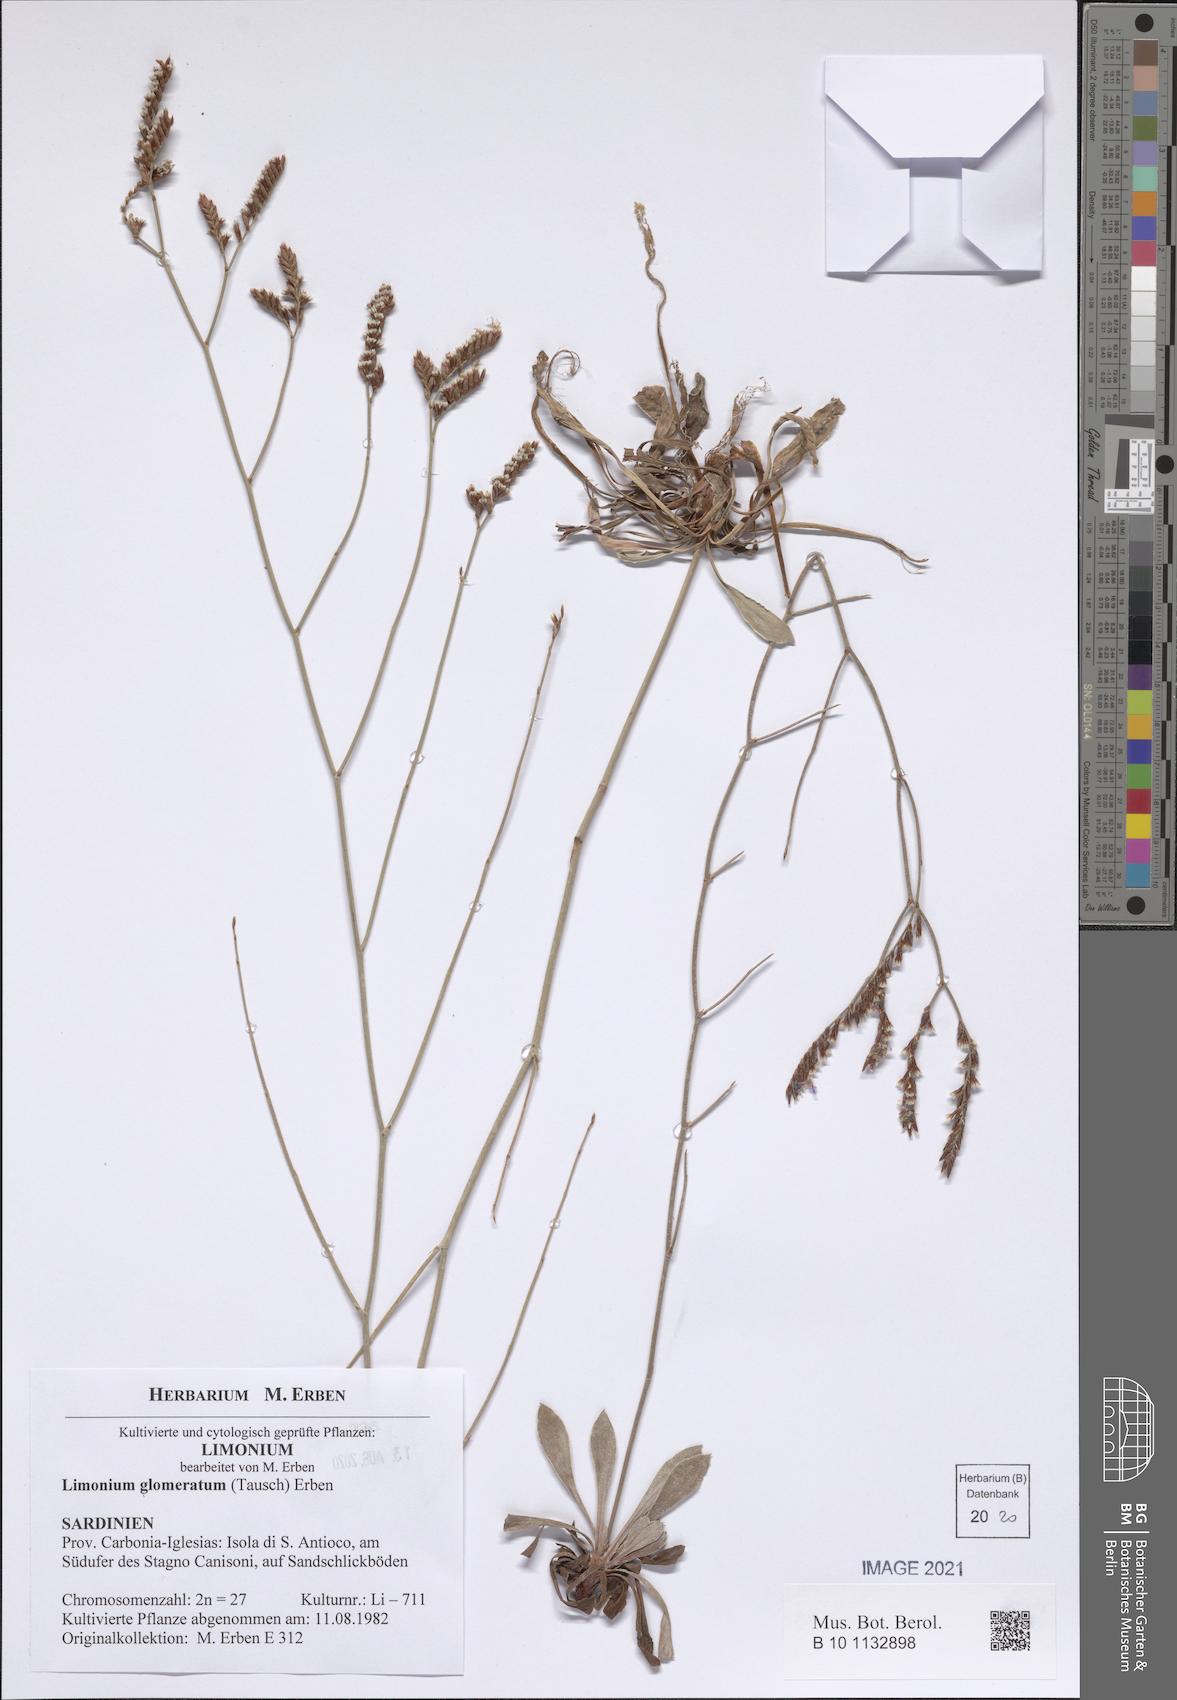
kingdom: Plantae
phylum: Tracheophyta
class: Magnoliopsida
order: Caryophyllales
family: Plumbaginaceae
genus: Limonium
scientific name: Limonium glomeratum
